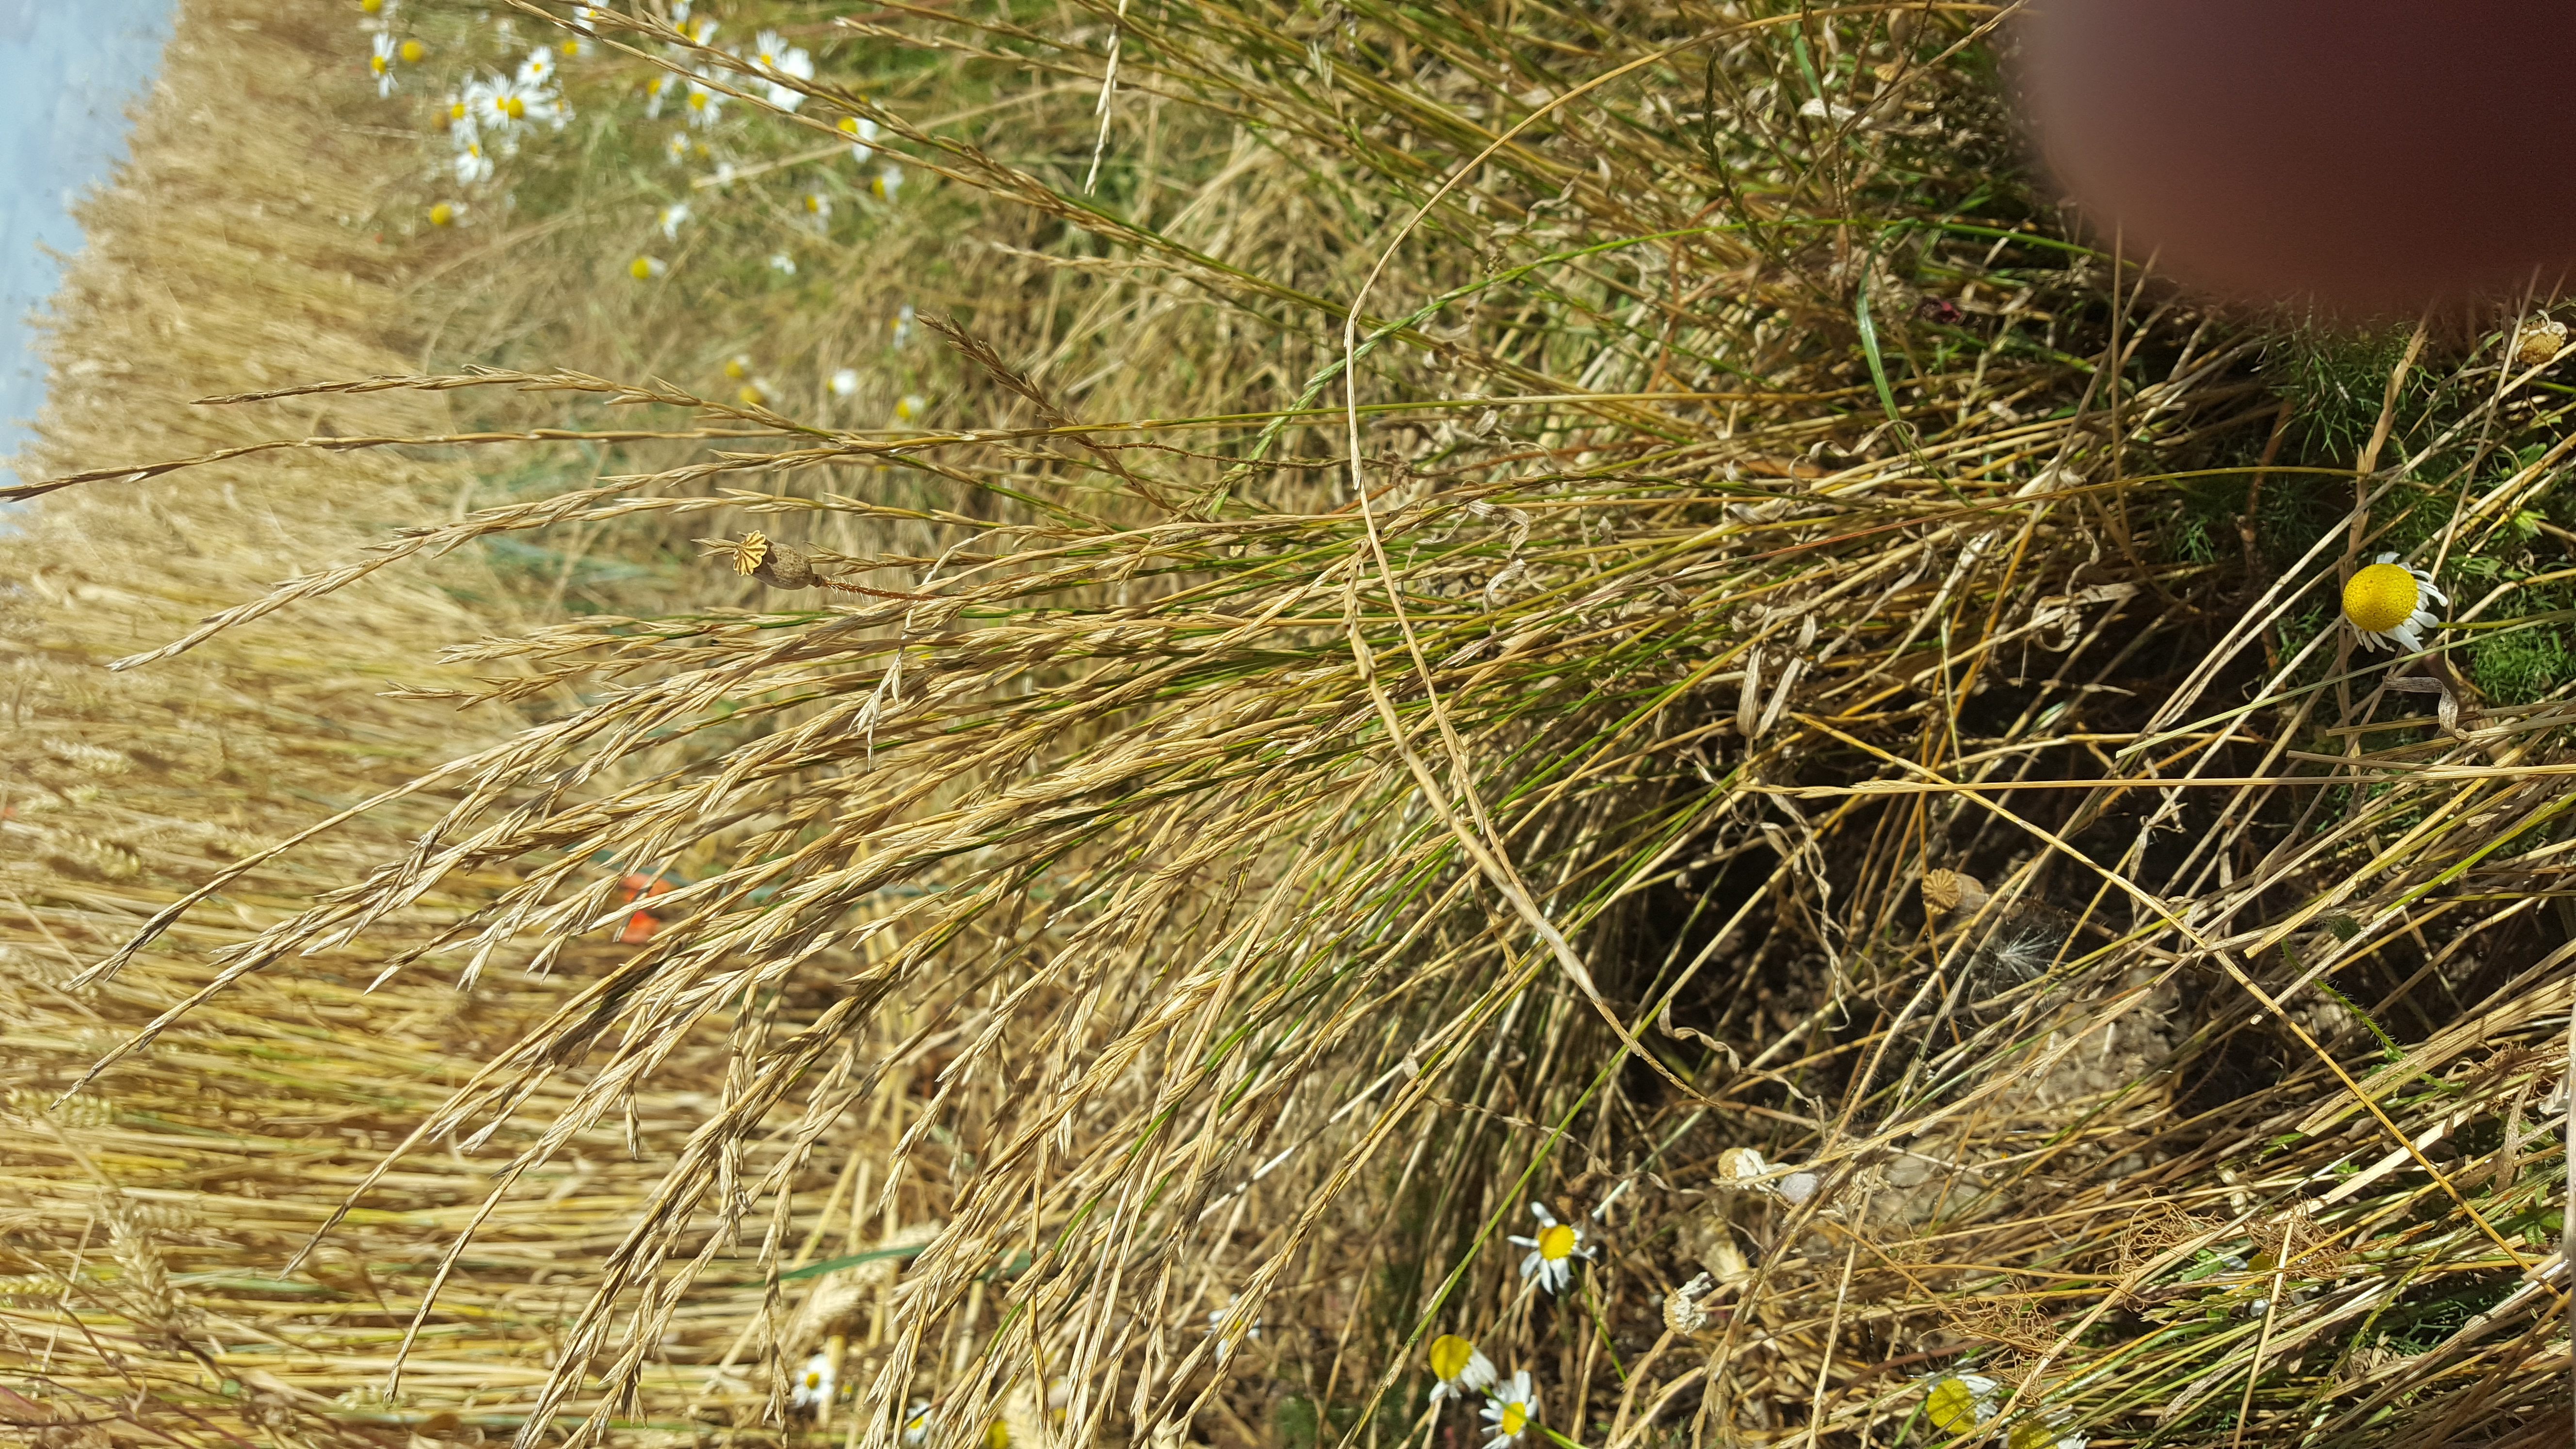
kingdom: Plantae
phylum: Tracheophyta
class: Liliopsida
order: Poales
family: Poaceae
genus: Lolium
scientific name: Lolium perenne
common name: Perennial ryegrass
